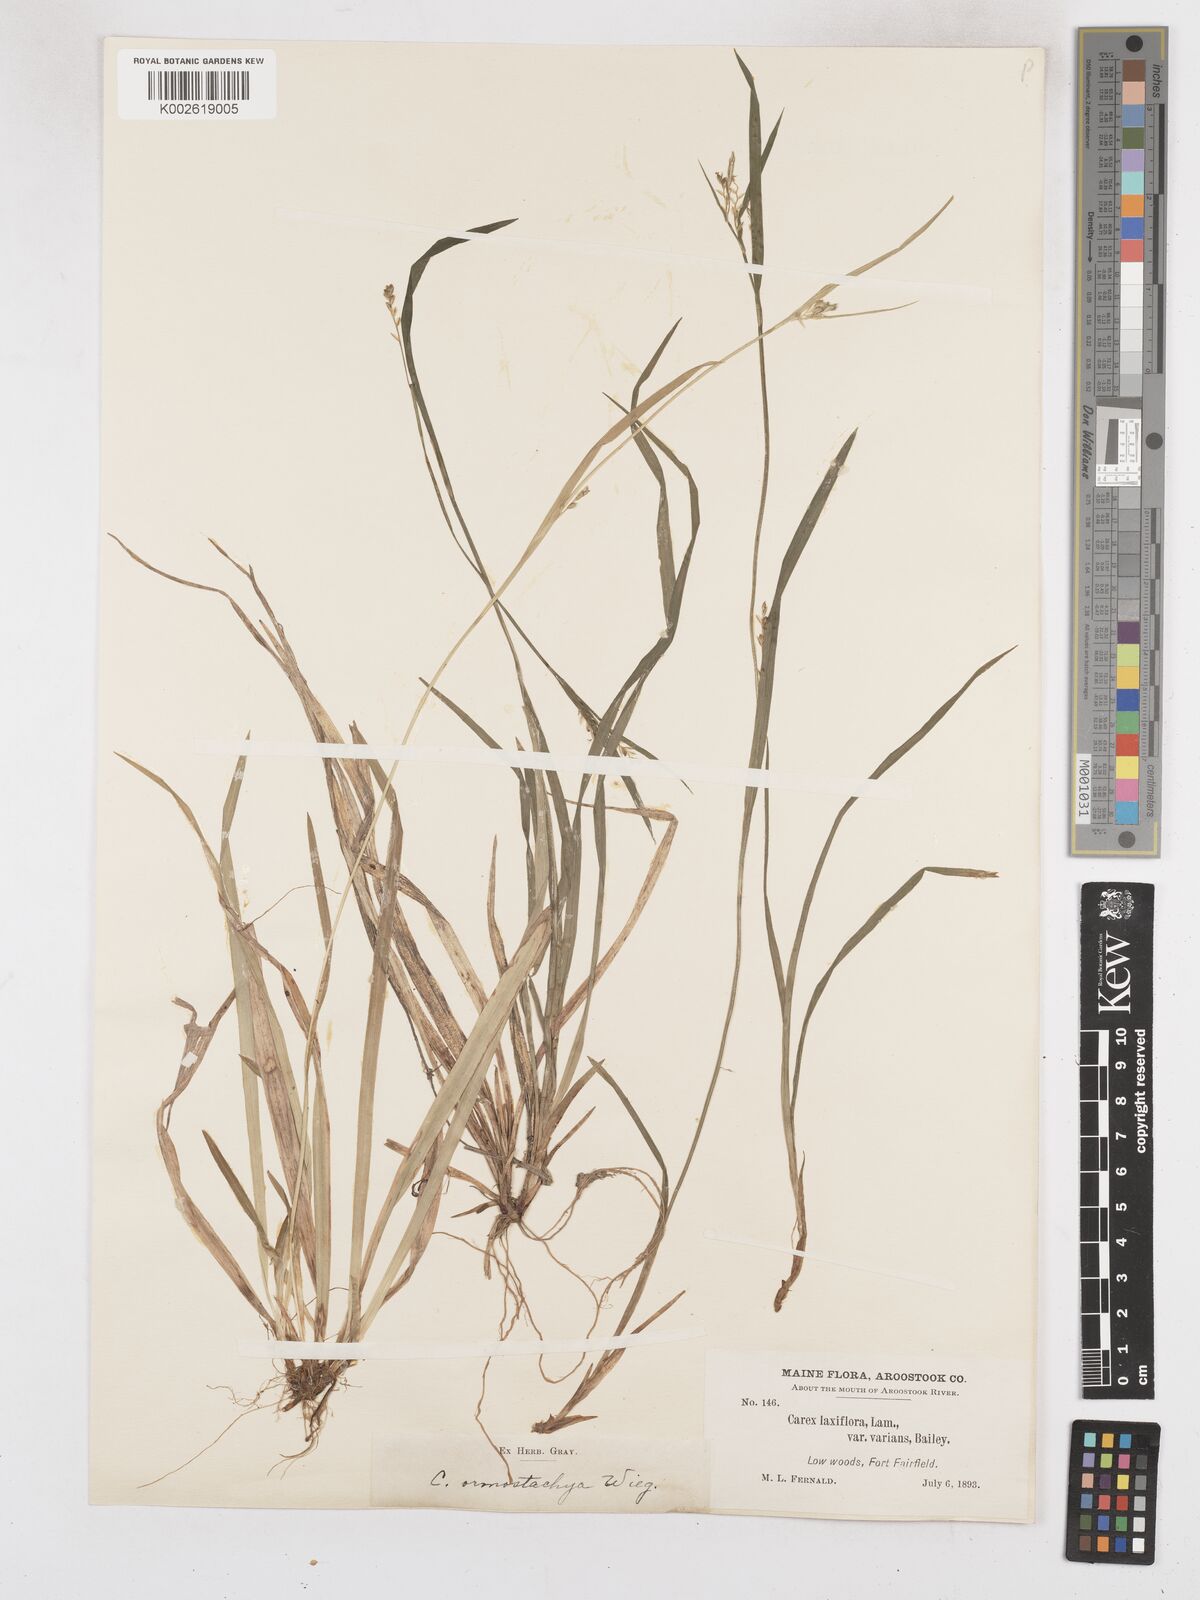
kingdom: Plantae
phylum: Tracheophyta
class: Liliopsida
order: Poales
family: Cyperaceae
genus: Carex
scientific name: Carex leptonervia
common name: Few-nerved wood sedge
